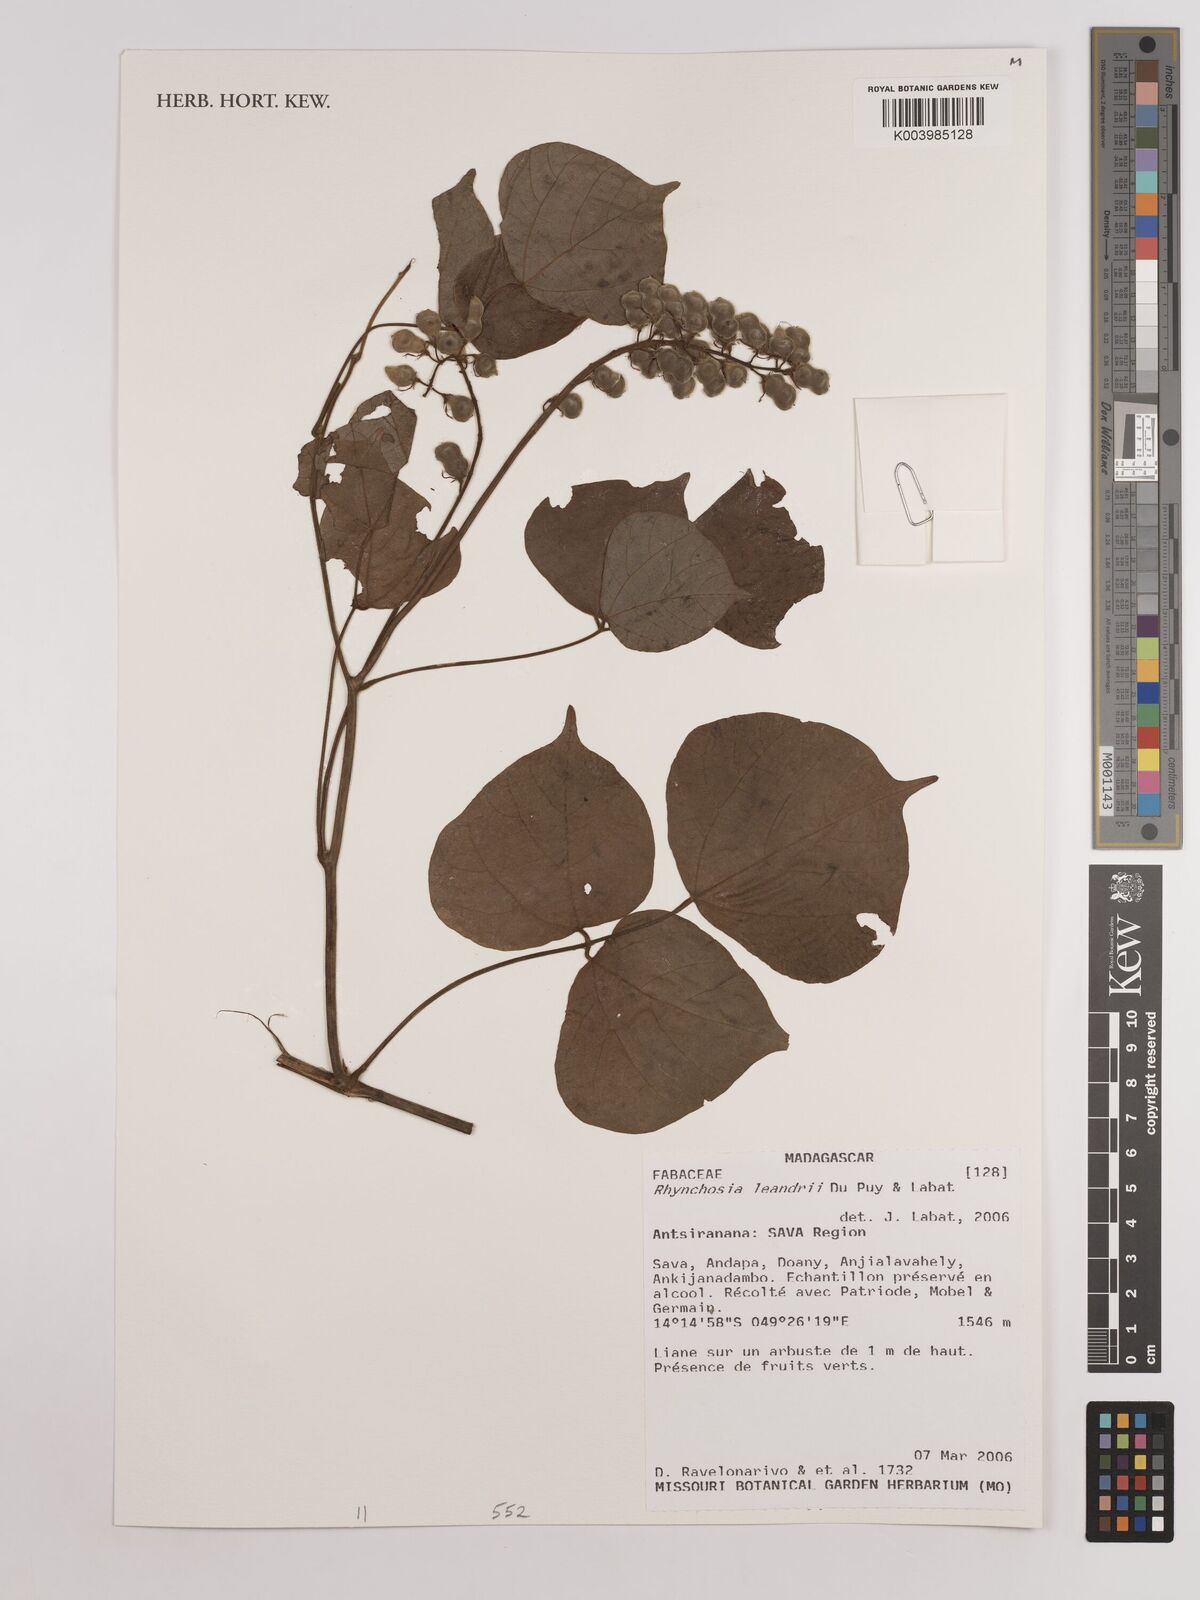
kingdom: Plantae
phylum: Tracheophyta
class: Magnoliopsida
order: Fabales
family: Fabaceae
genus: Rhynchosia
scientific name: Rhynchosia leandrii
